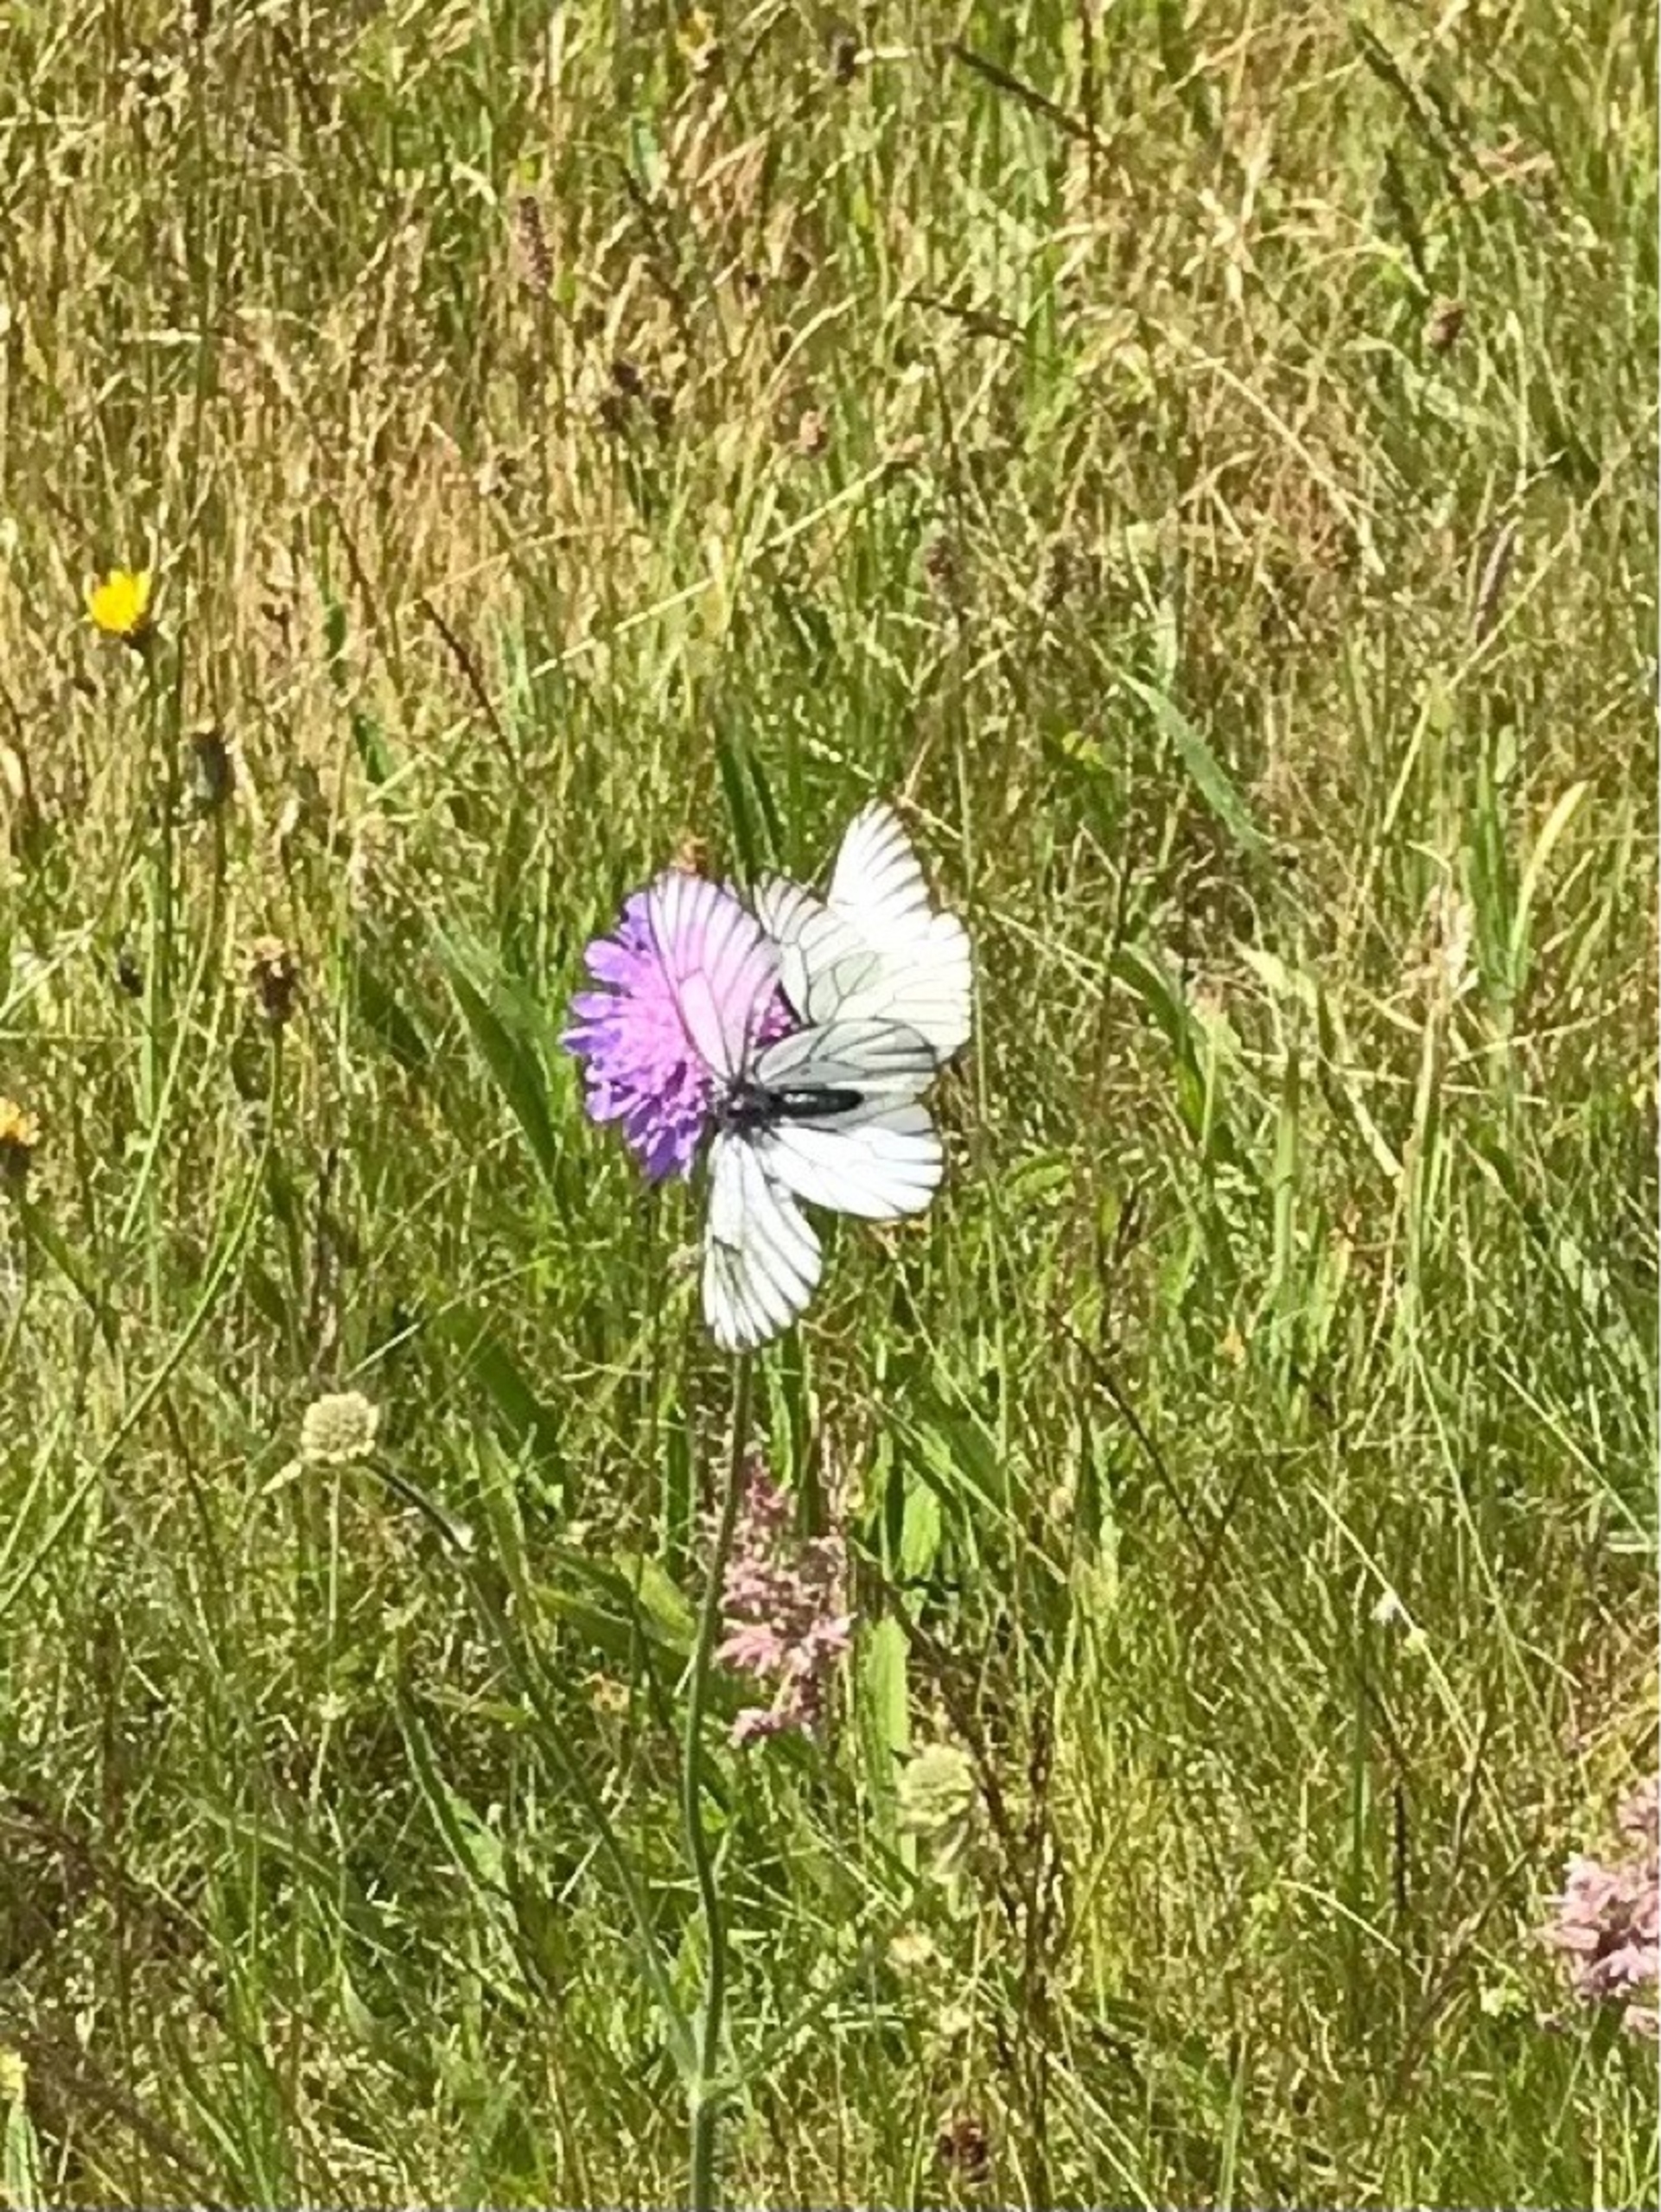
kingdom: Animalia
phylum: Arthropoda
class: Insecta
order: Lepidoptera
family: Pieridae
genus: Aporia
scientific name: Aporia crataegi
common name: Sortåret hvidvinge
